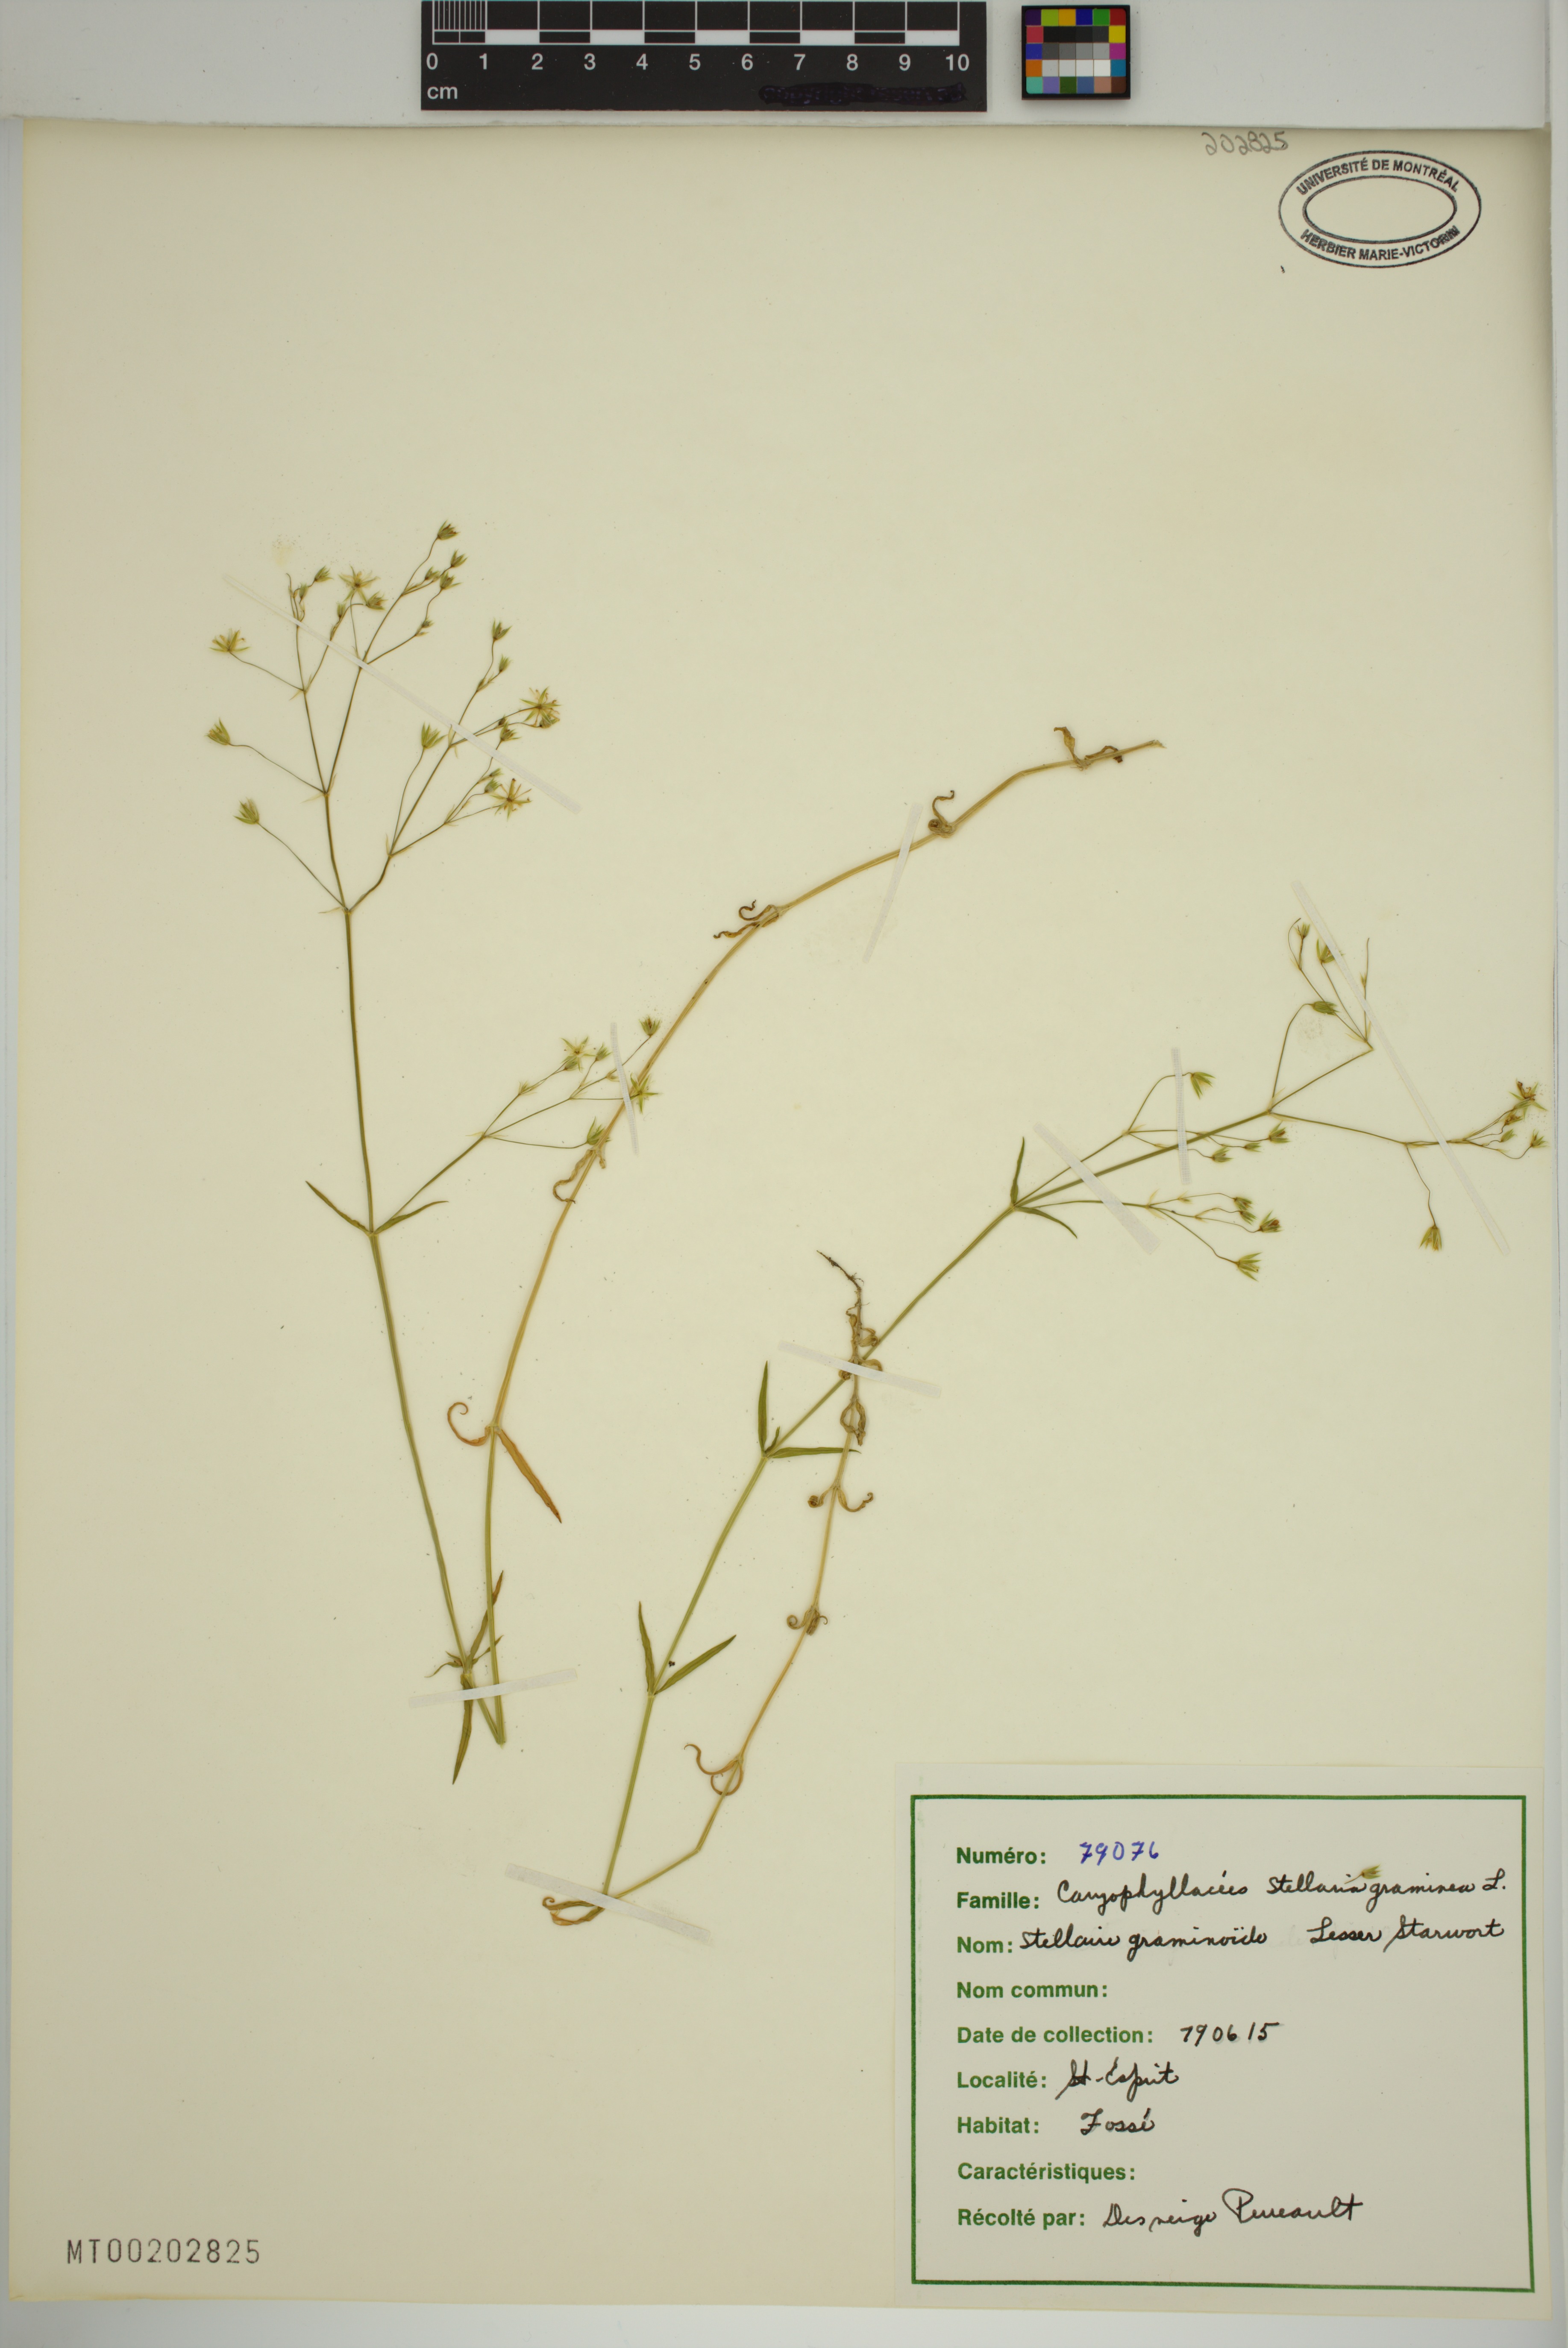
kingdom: Plantae
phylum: Tracheophyta
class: Magnoliopsida
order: Caryophyllales
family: Caryophyllaceae
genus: Stellaria
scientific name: Stellaria graminea
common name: Grass-like starwort
